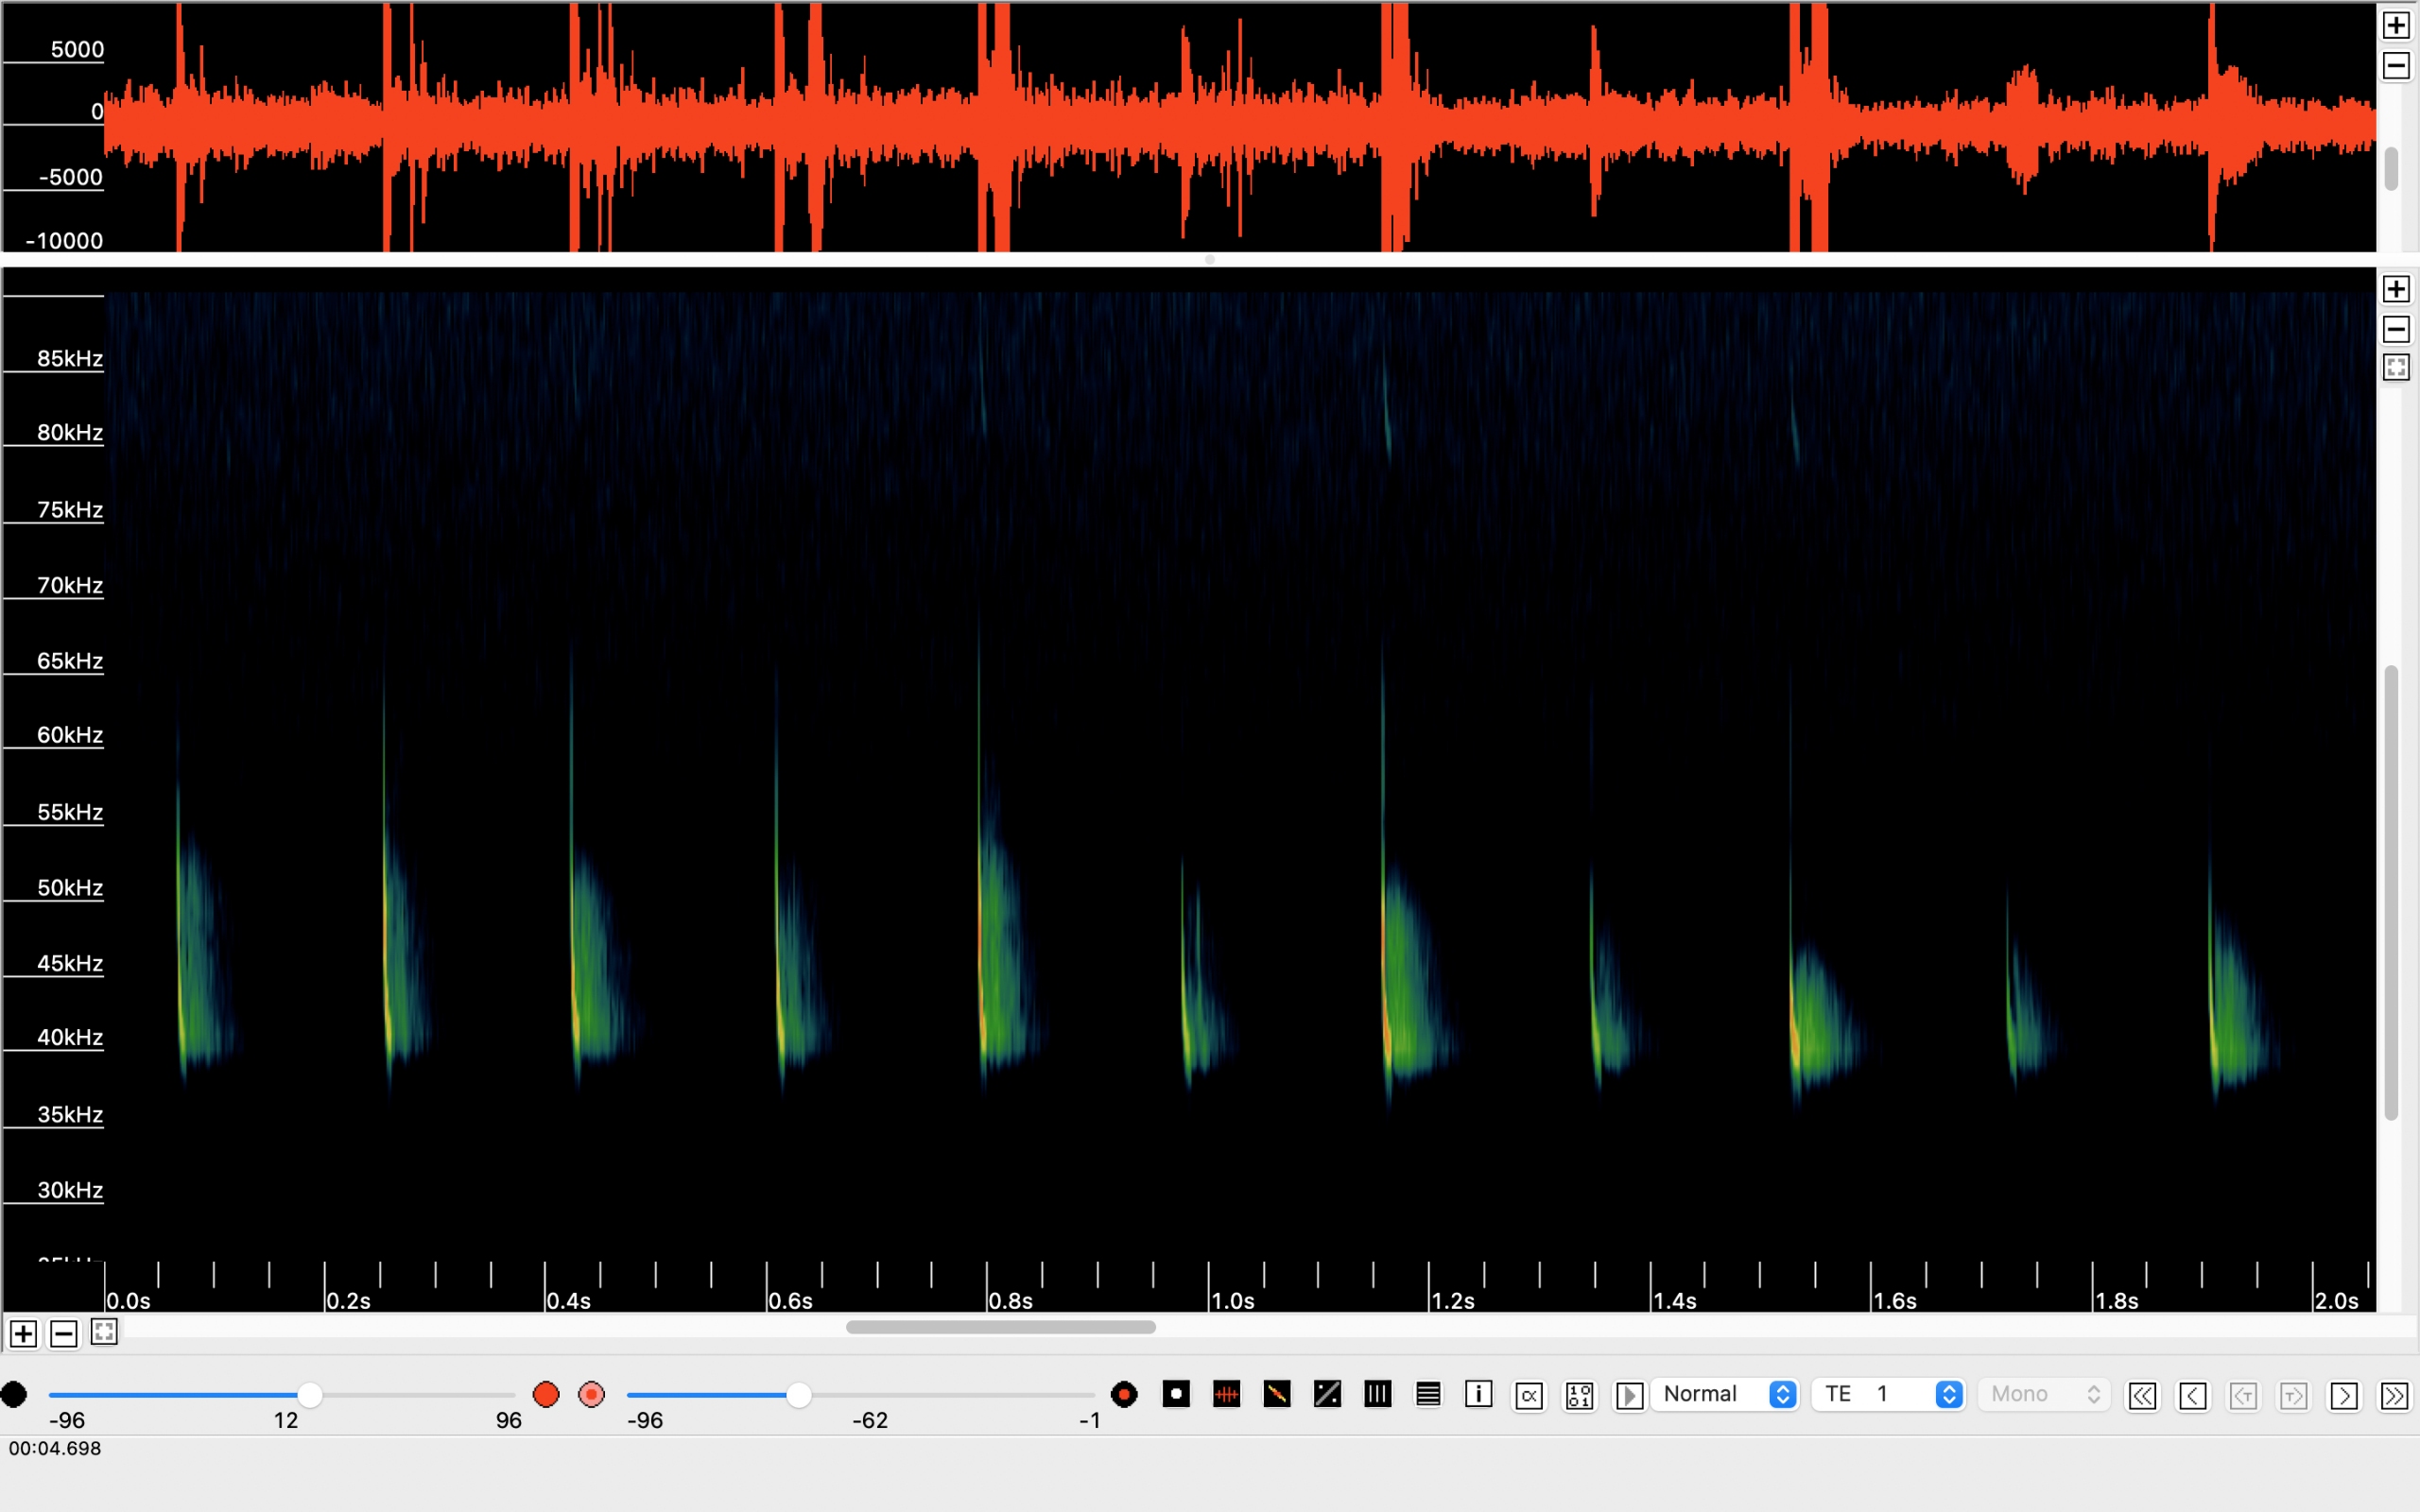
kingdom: Animalia
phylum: Chordata
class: Mammalia
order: Chiroptera
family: Vespertilionidae
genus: Pipistrellus
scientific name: Pipistrellus nathusii
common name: Troldflagermus
